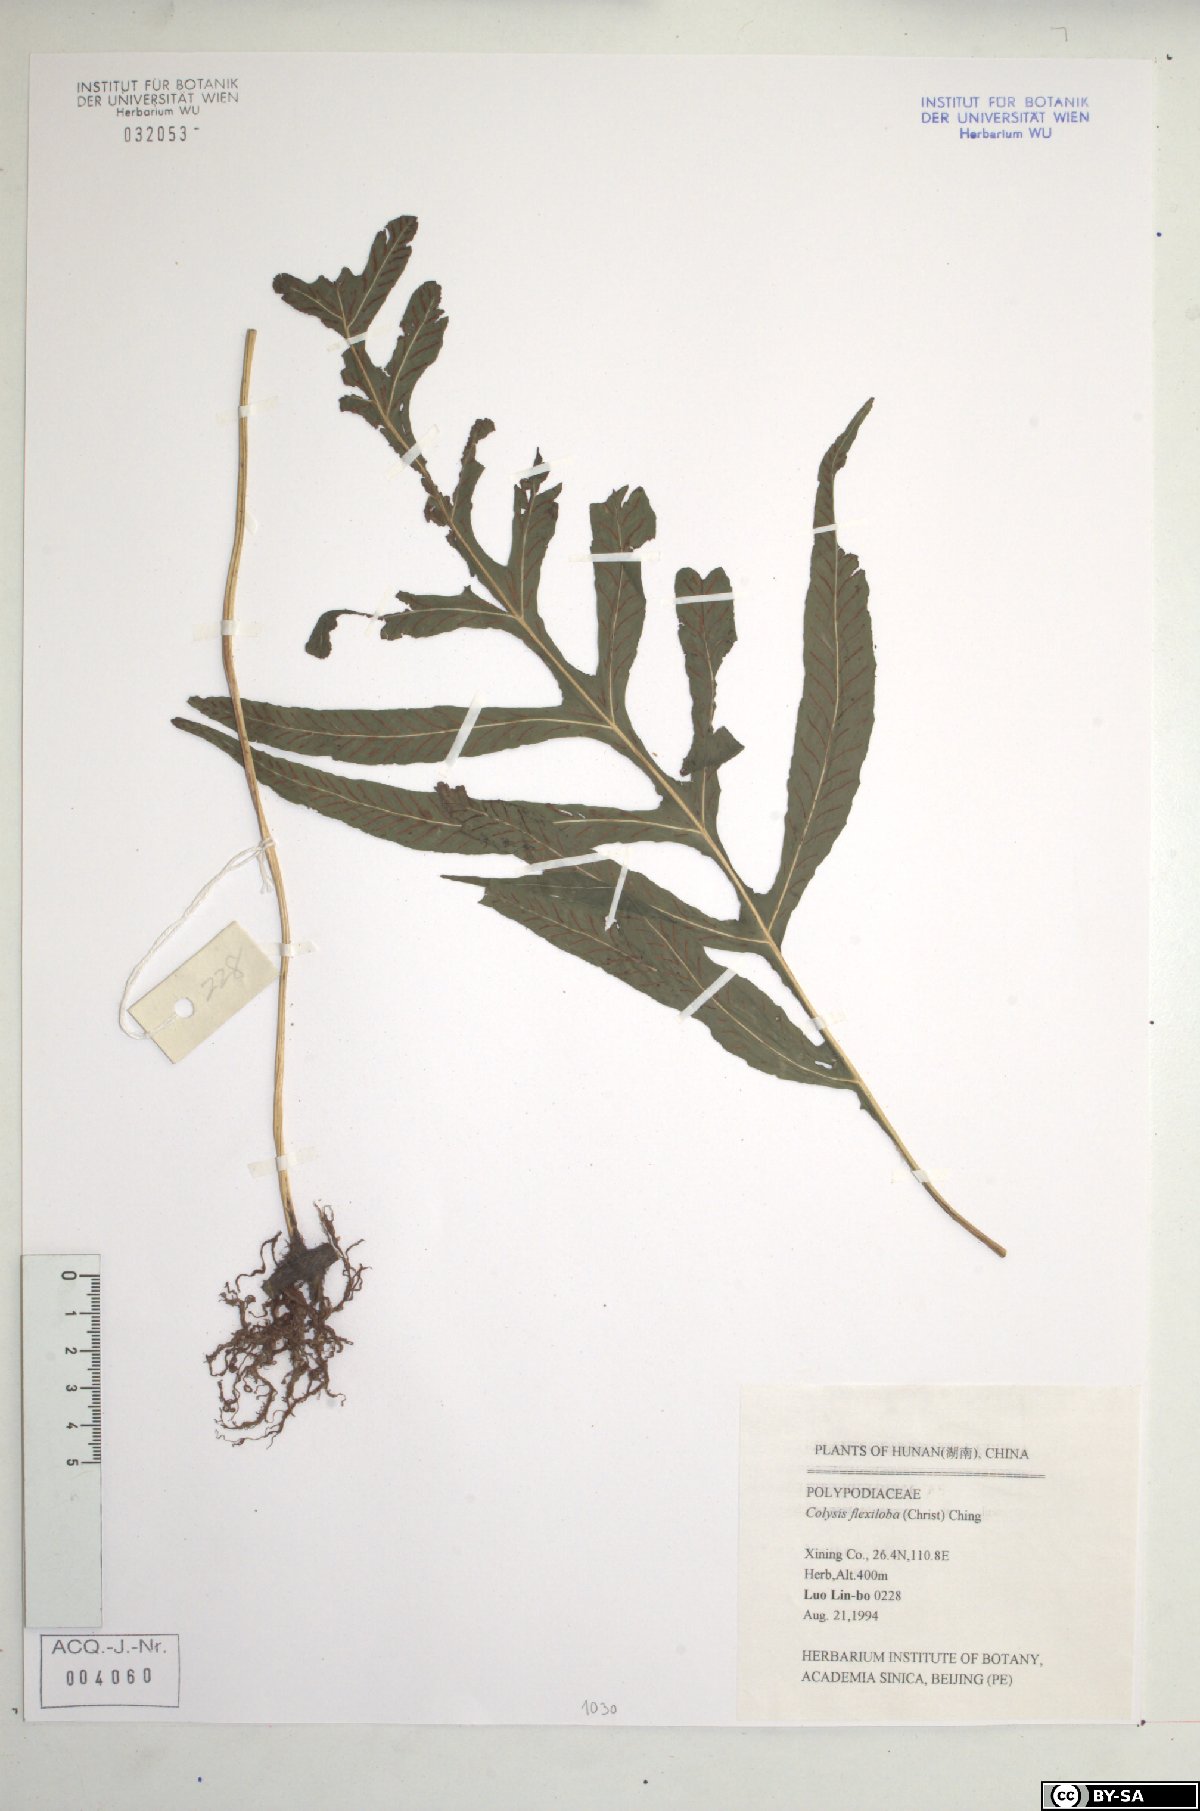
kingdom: Plantae
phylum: Tracheophyta
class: Polypodiopsida
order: Polypodiales
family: Polypodiaceae
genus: Leptochilus
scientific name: Leptochilus flexilobus
